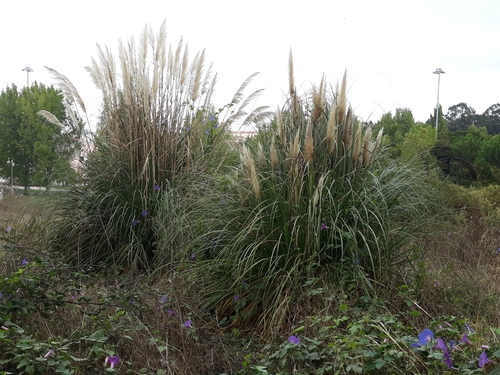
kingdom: Plantae
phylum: Tracheophyta
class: Liliopsida
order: Poales
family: Poaceae
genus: Cortaderia
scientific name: Cortaderia selloana
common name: Uruguayan pampas grass
